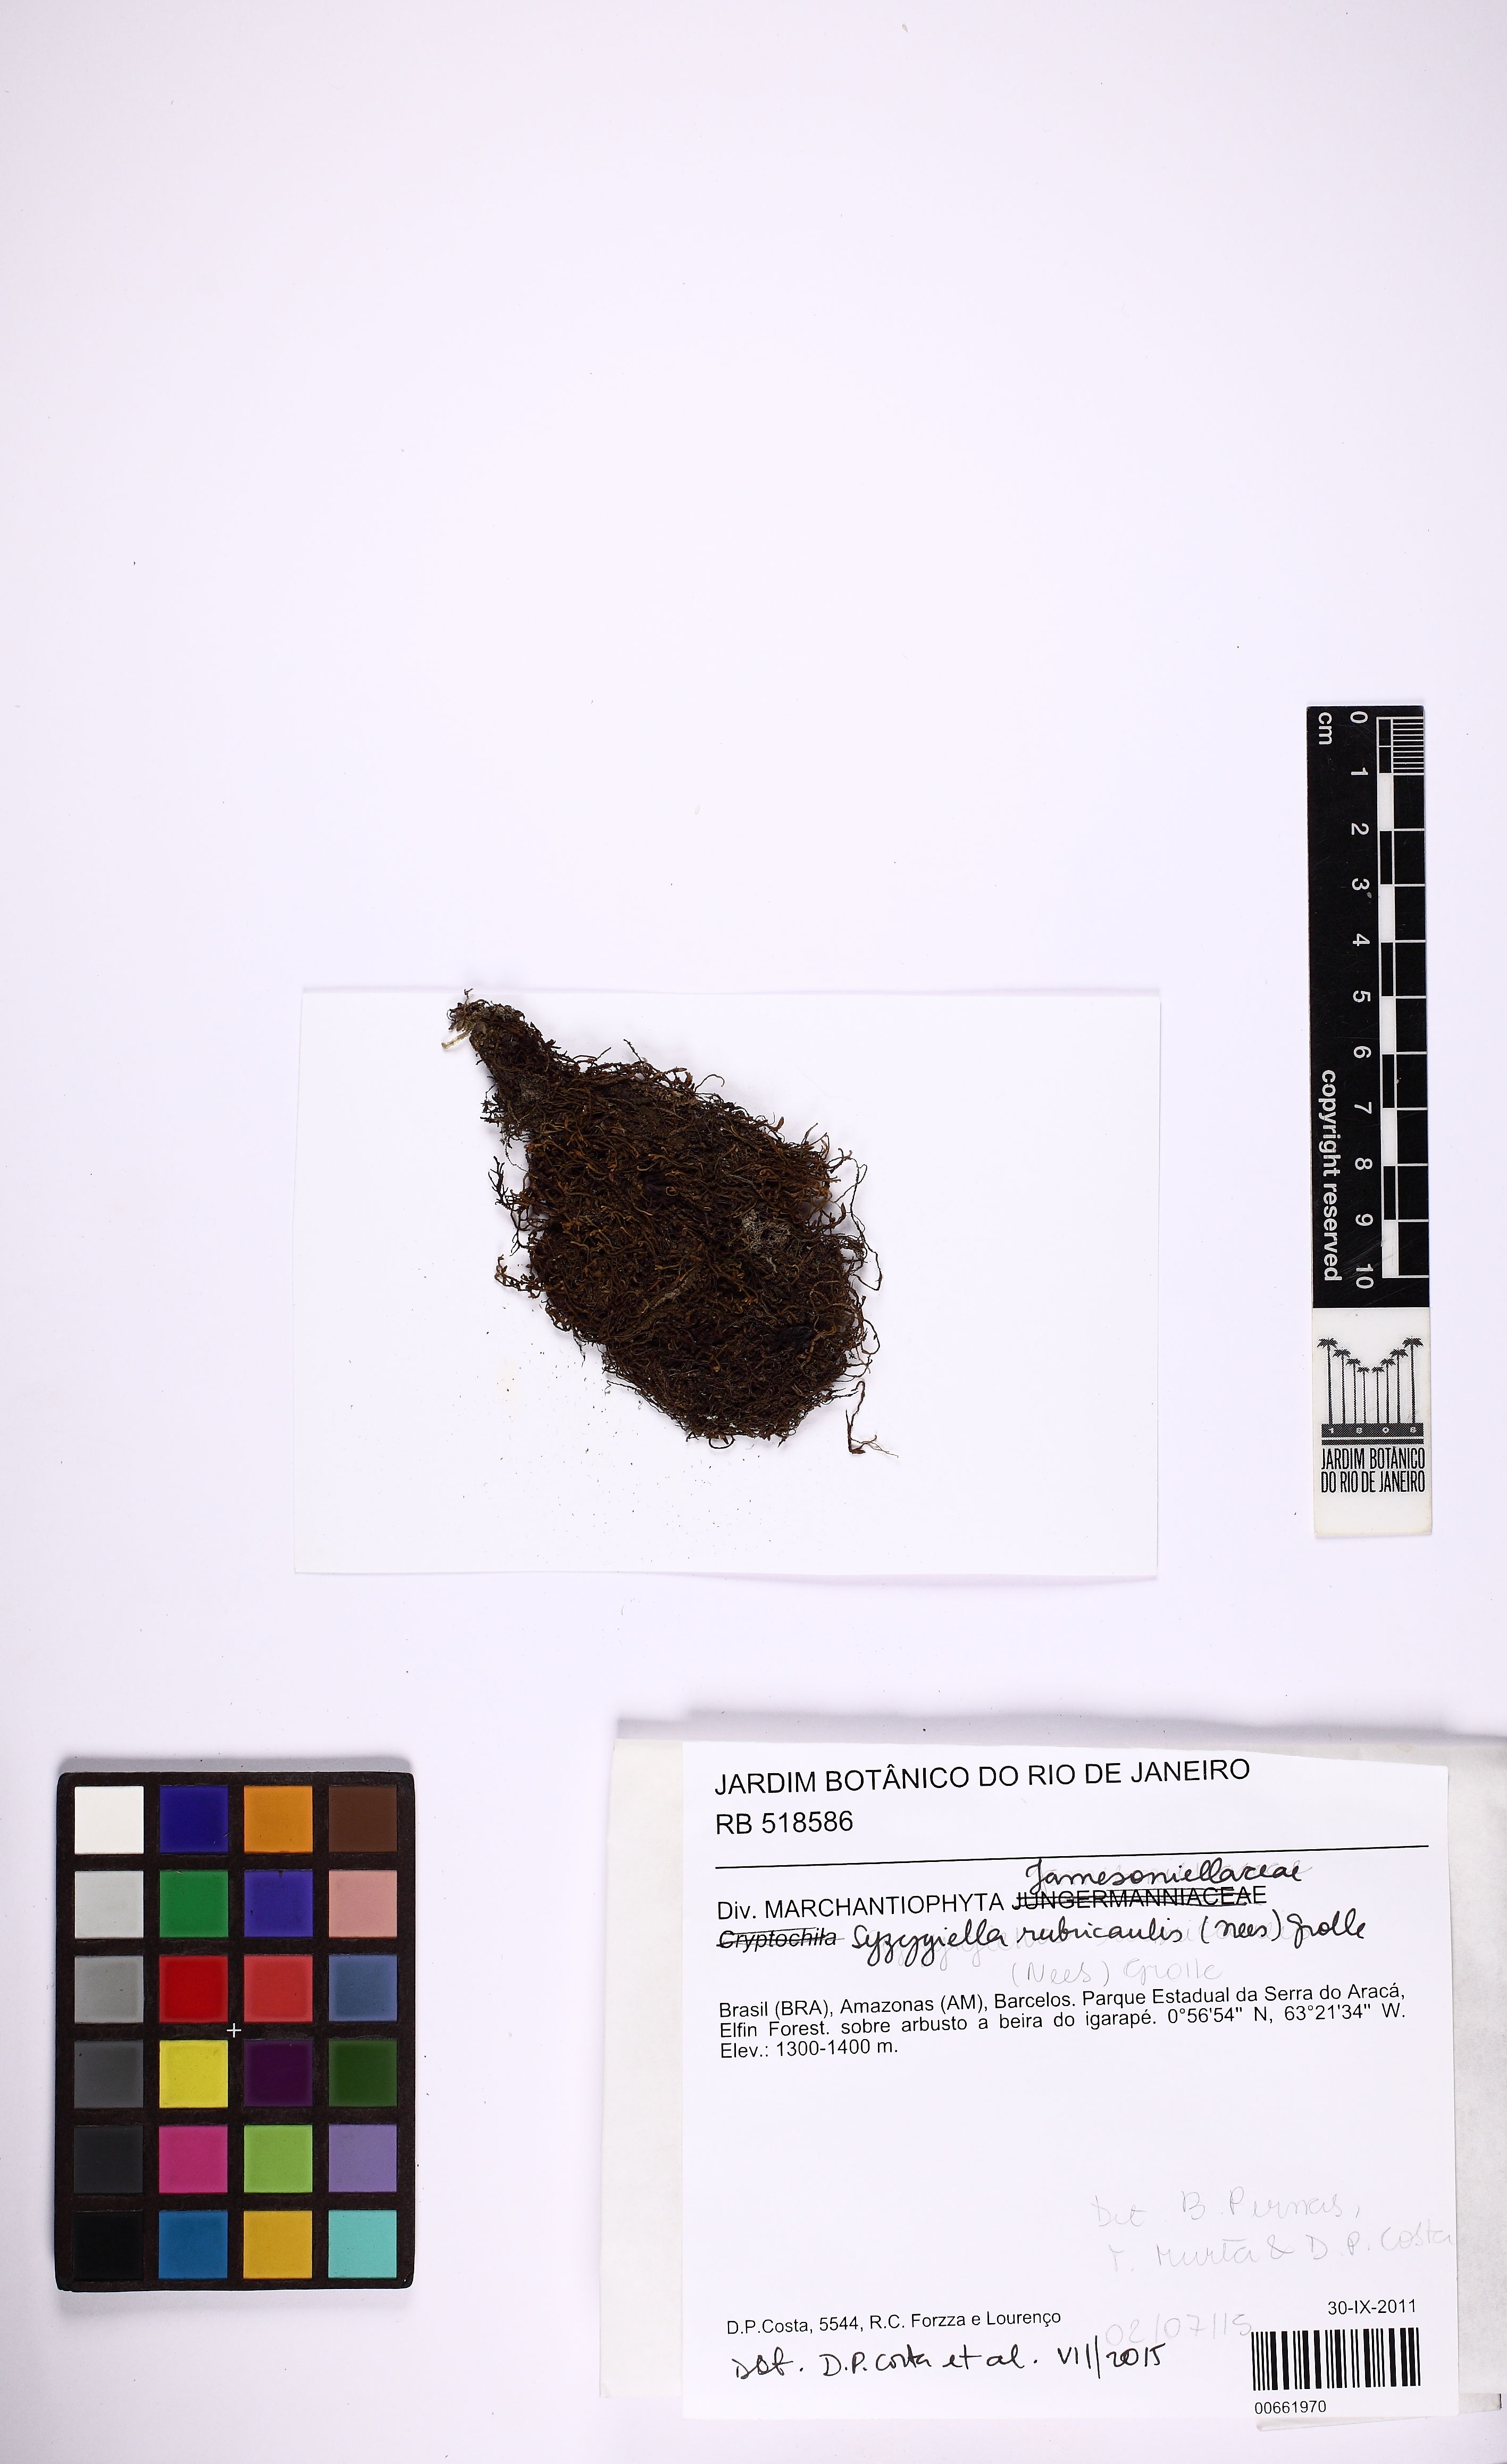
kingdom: Plantae
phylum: Marchantiophyta
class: Jungermanniopsida
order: Jungermanniales
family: Adelanthaceae
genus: Syzygiella
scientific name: Syzygiella rubricaulis
